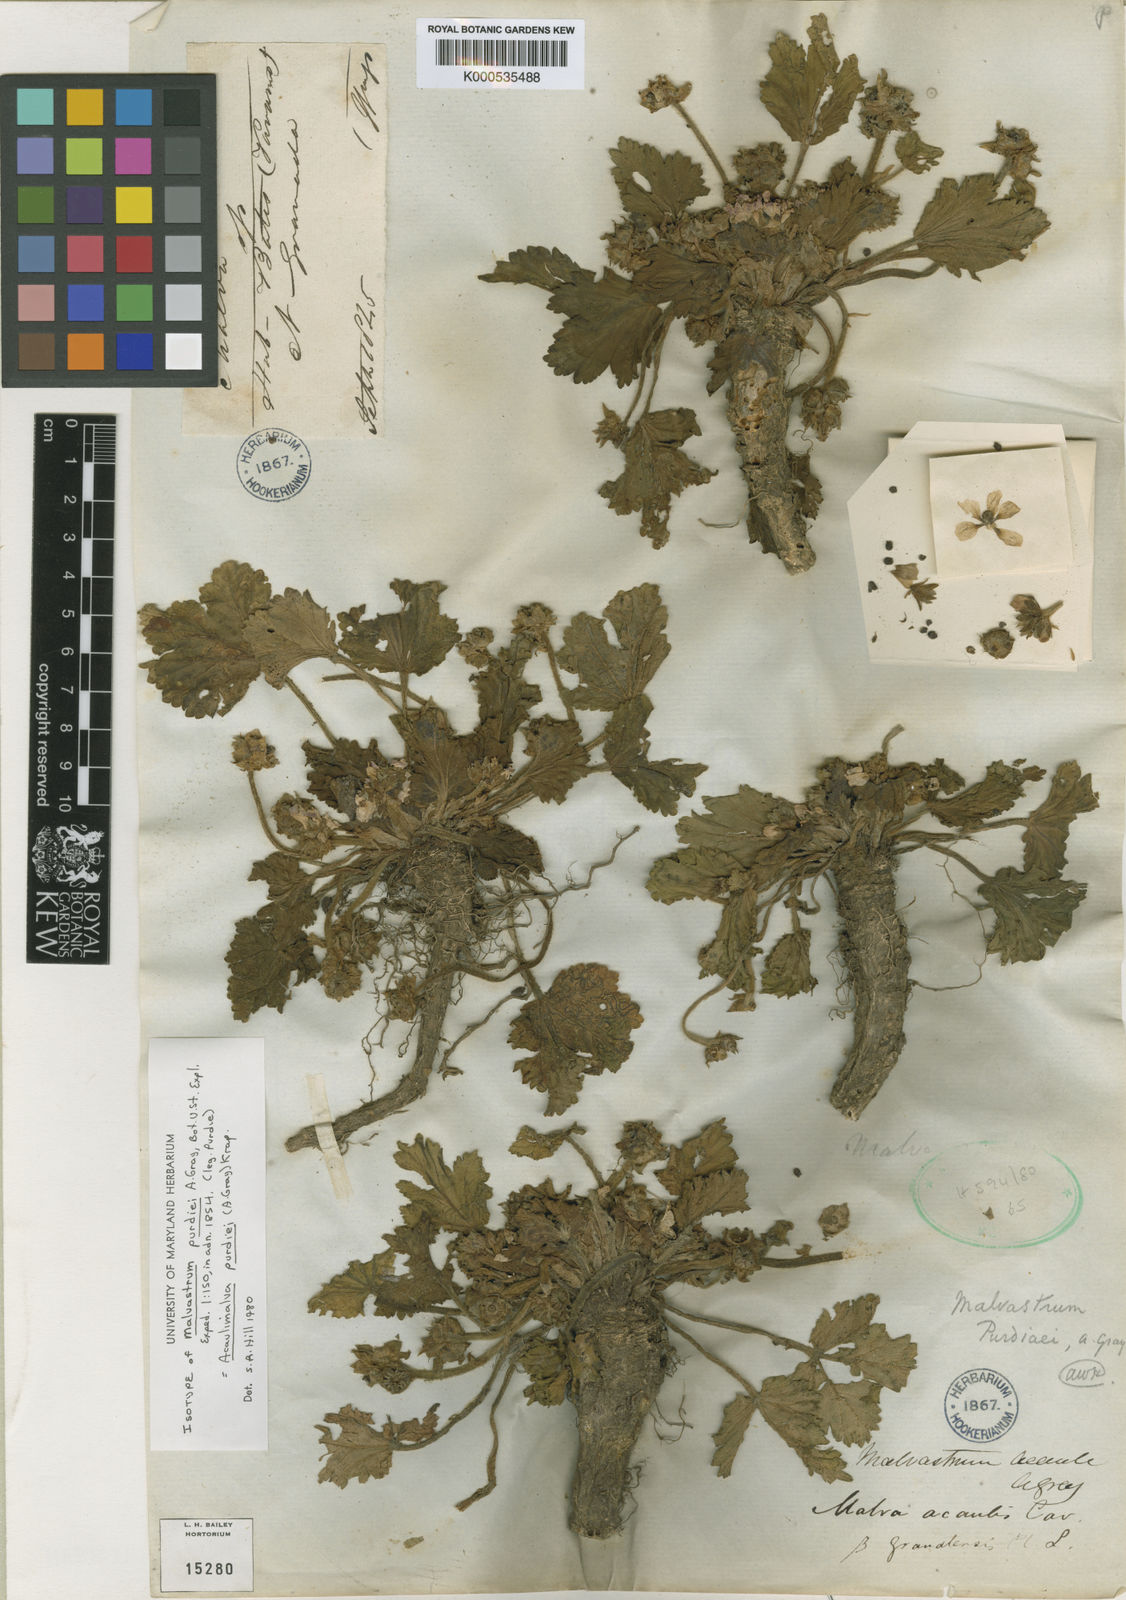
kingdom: Plantae
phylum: Tracheophyta
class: Magnoliopsida
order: Malvales
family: Malvaceae
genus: Acaulimalva
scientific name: Acaulimalva purdiaei
